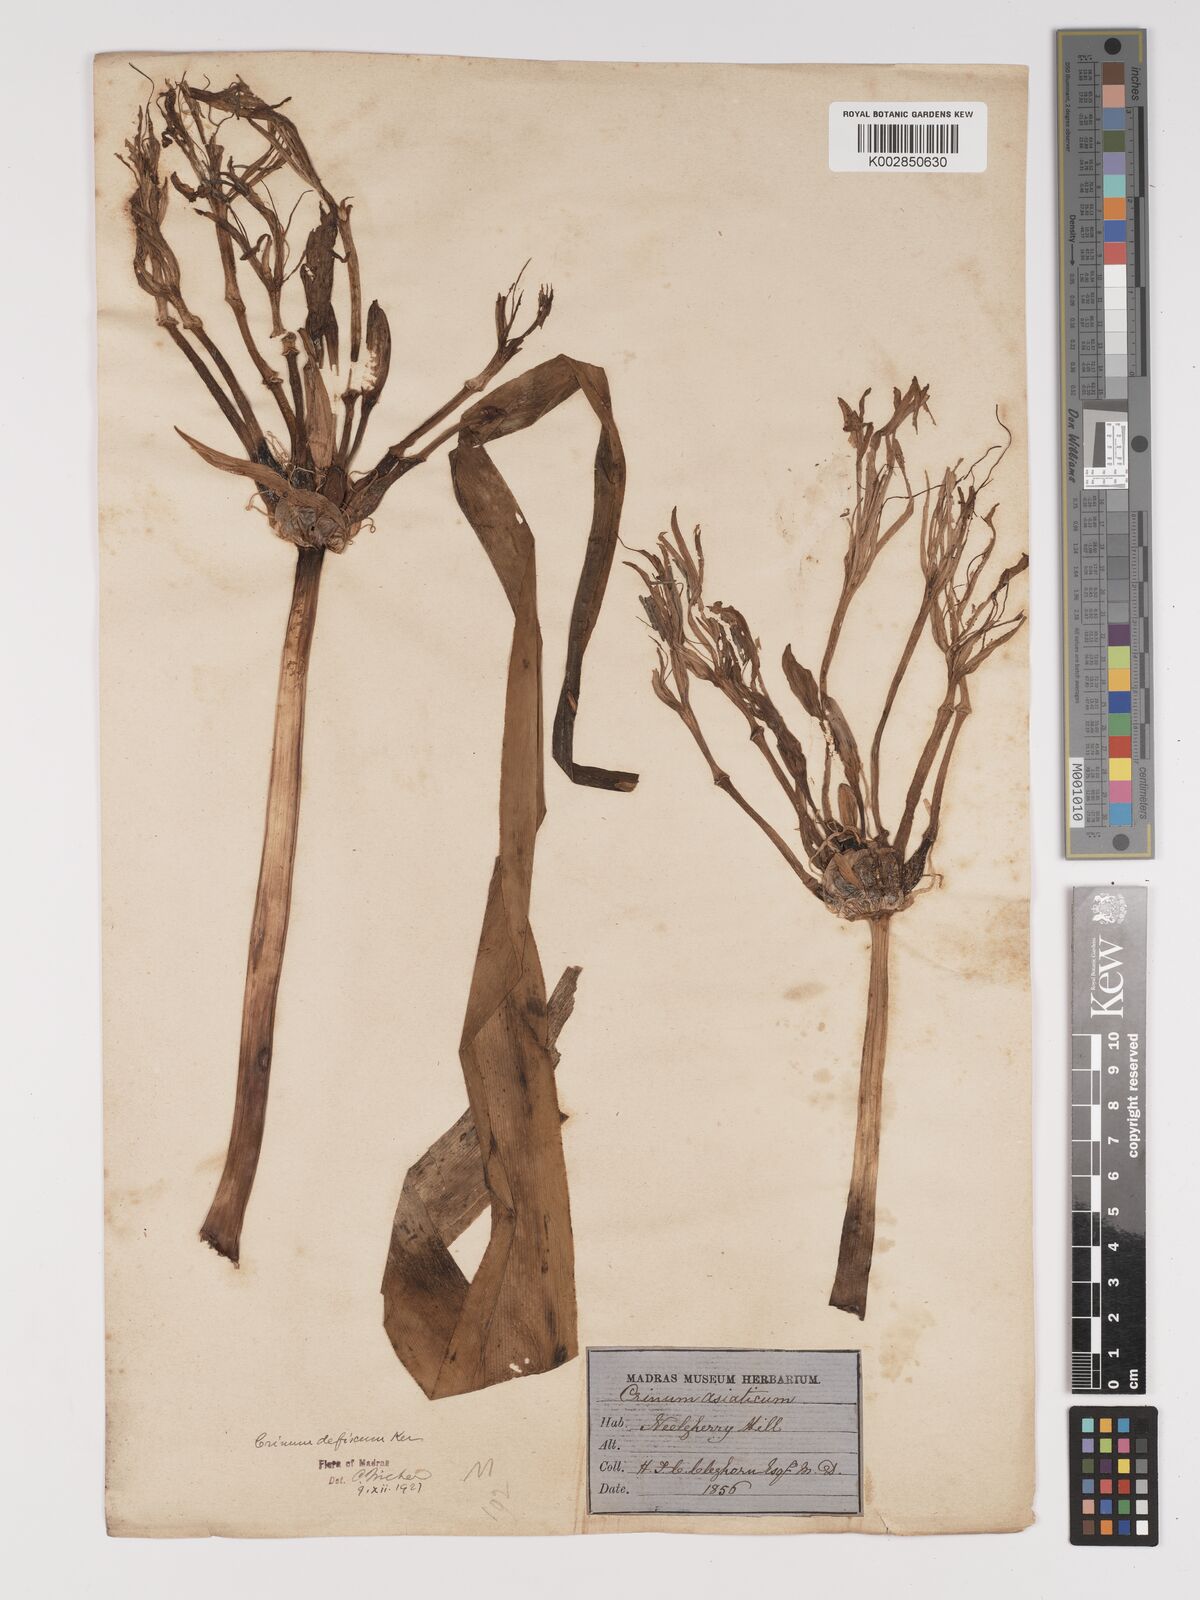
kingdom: Plantae
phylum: Tracheophyta
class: Liliopsida
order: Asparagales
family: Amaryllidaceae
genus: Crinum
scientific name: Crinum defixum
